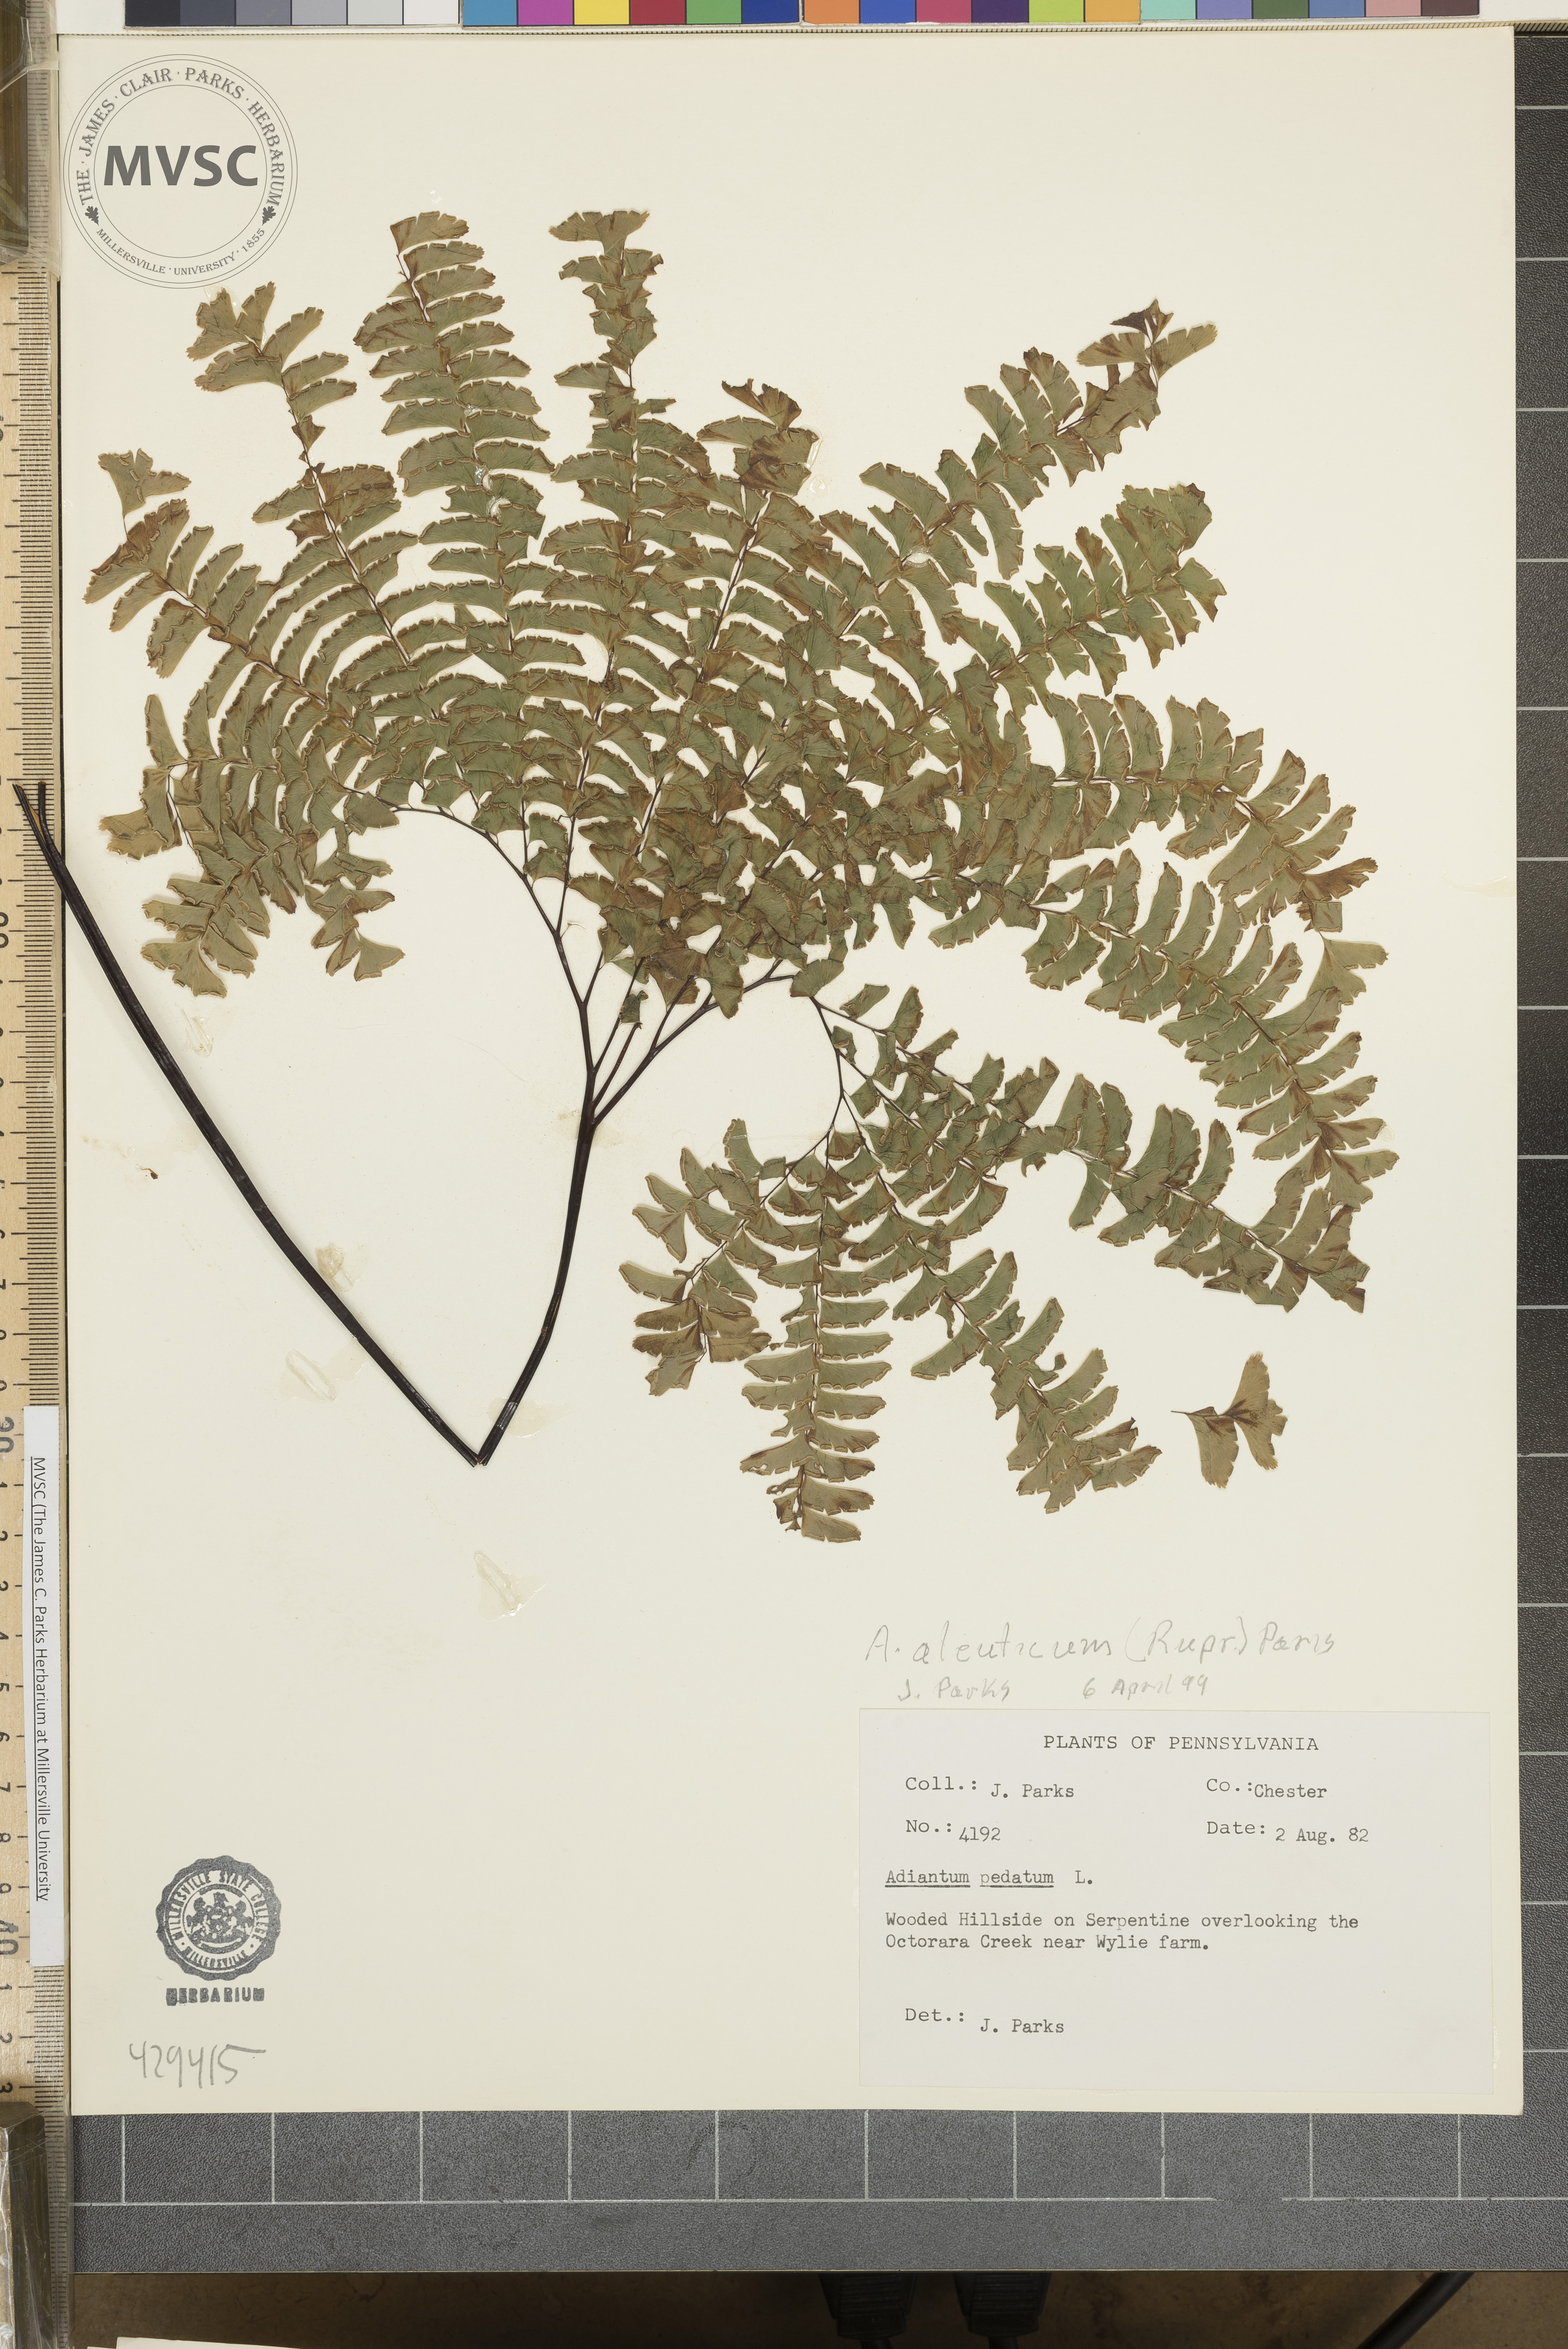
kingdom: Plantae
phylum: Tracheophyta
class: Polypodiopsida
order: Polypodiales
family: Pteridaceae
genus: Adiantum
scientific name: Adiantum pedatum
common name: Five-finger fern
